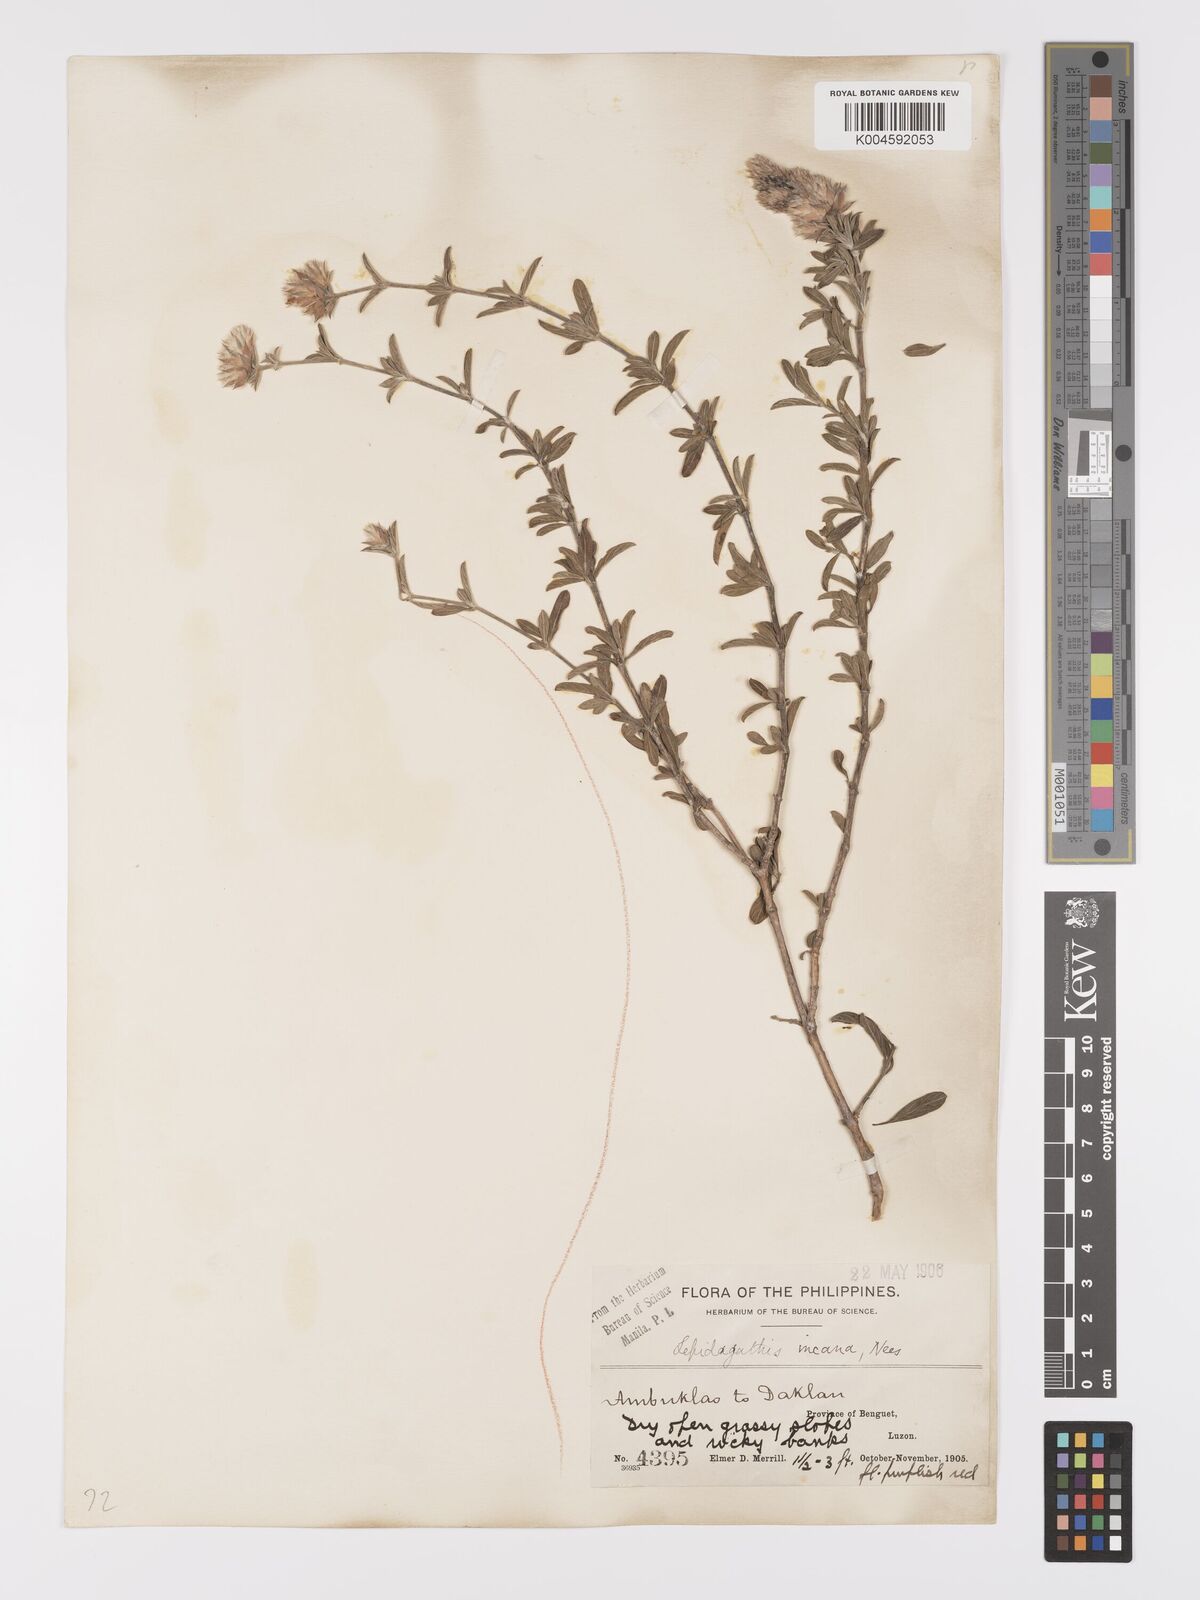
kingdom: Plantae
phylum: Tracheophyta
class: Magnoliopsida
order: Lamiales
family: Acanthaceae
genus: Lepidagathis
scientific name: Lepidagathis cinerea
